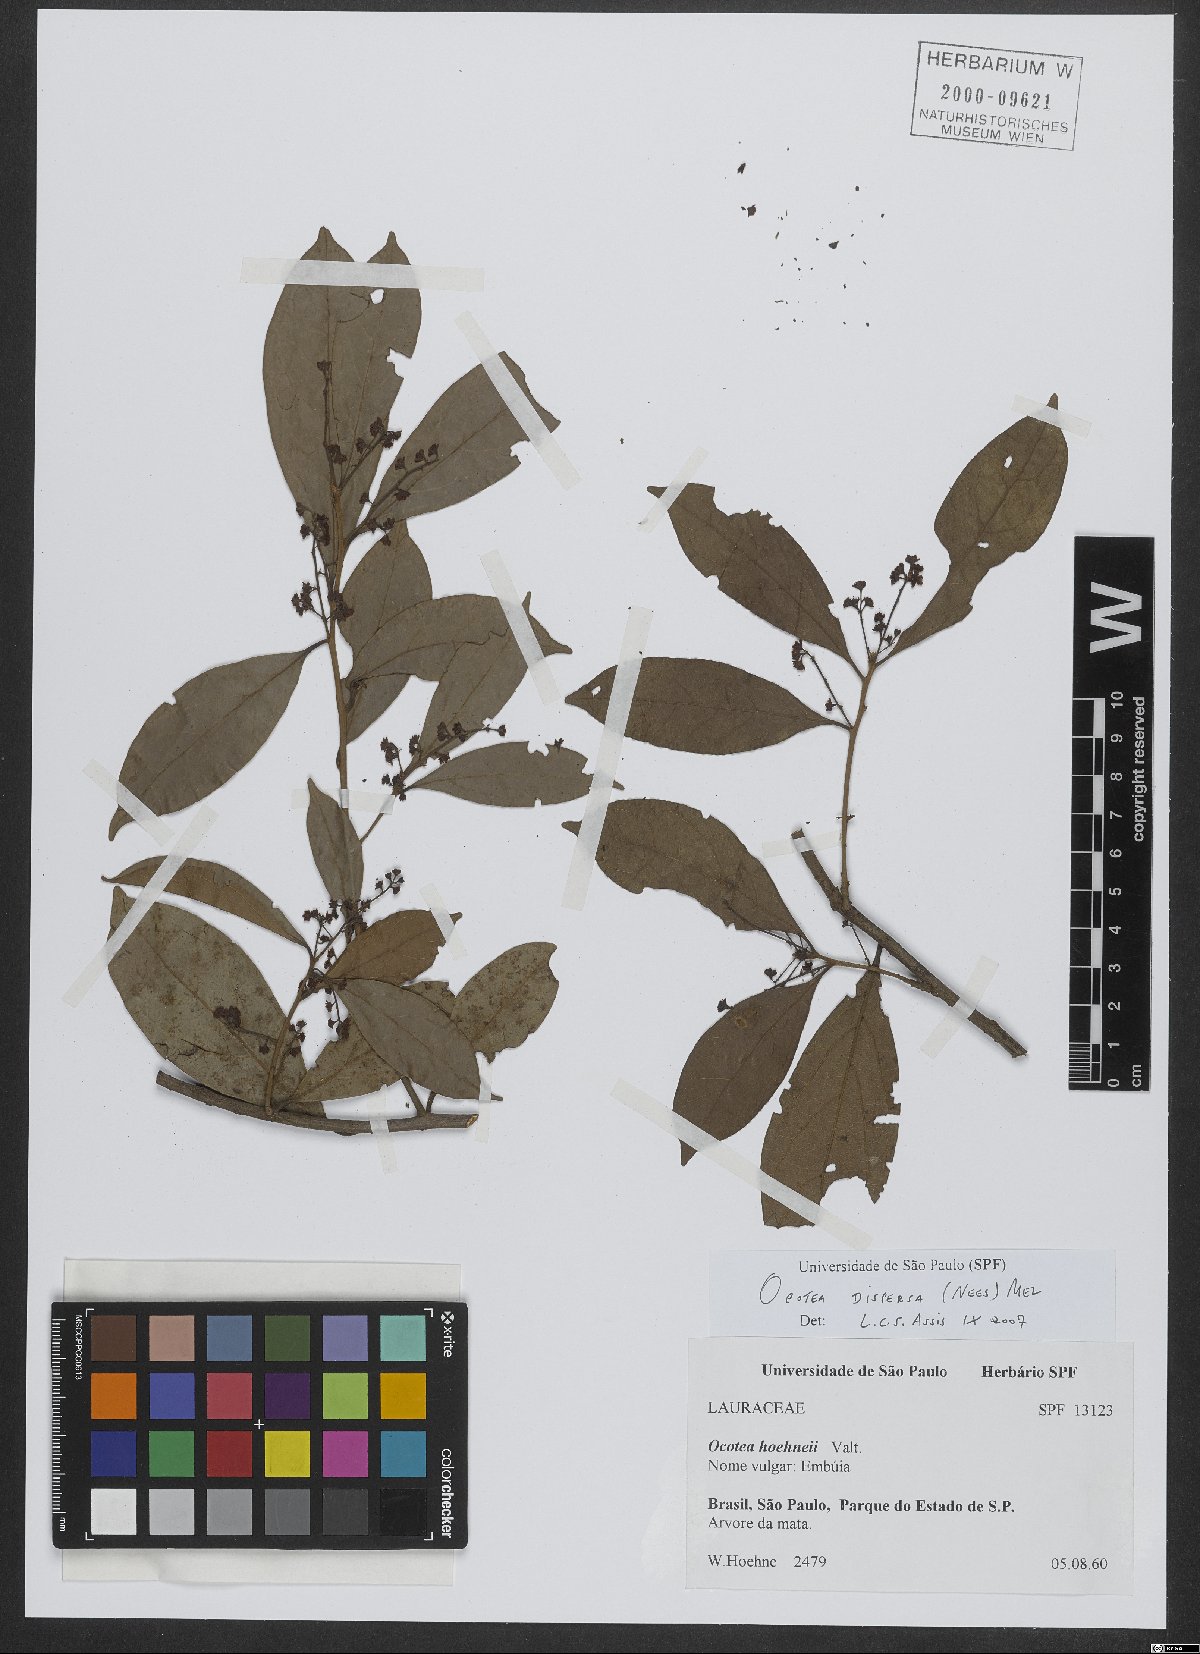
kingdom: Plantae
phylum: Tracheophyta
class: Magnoliopsida
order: Laurales
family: Lauraceae
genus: Ocotea
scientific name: Ocotea dispersa
